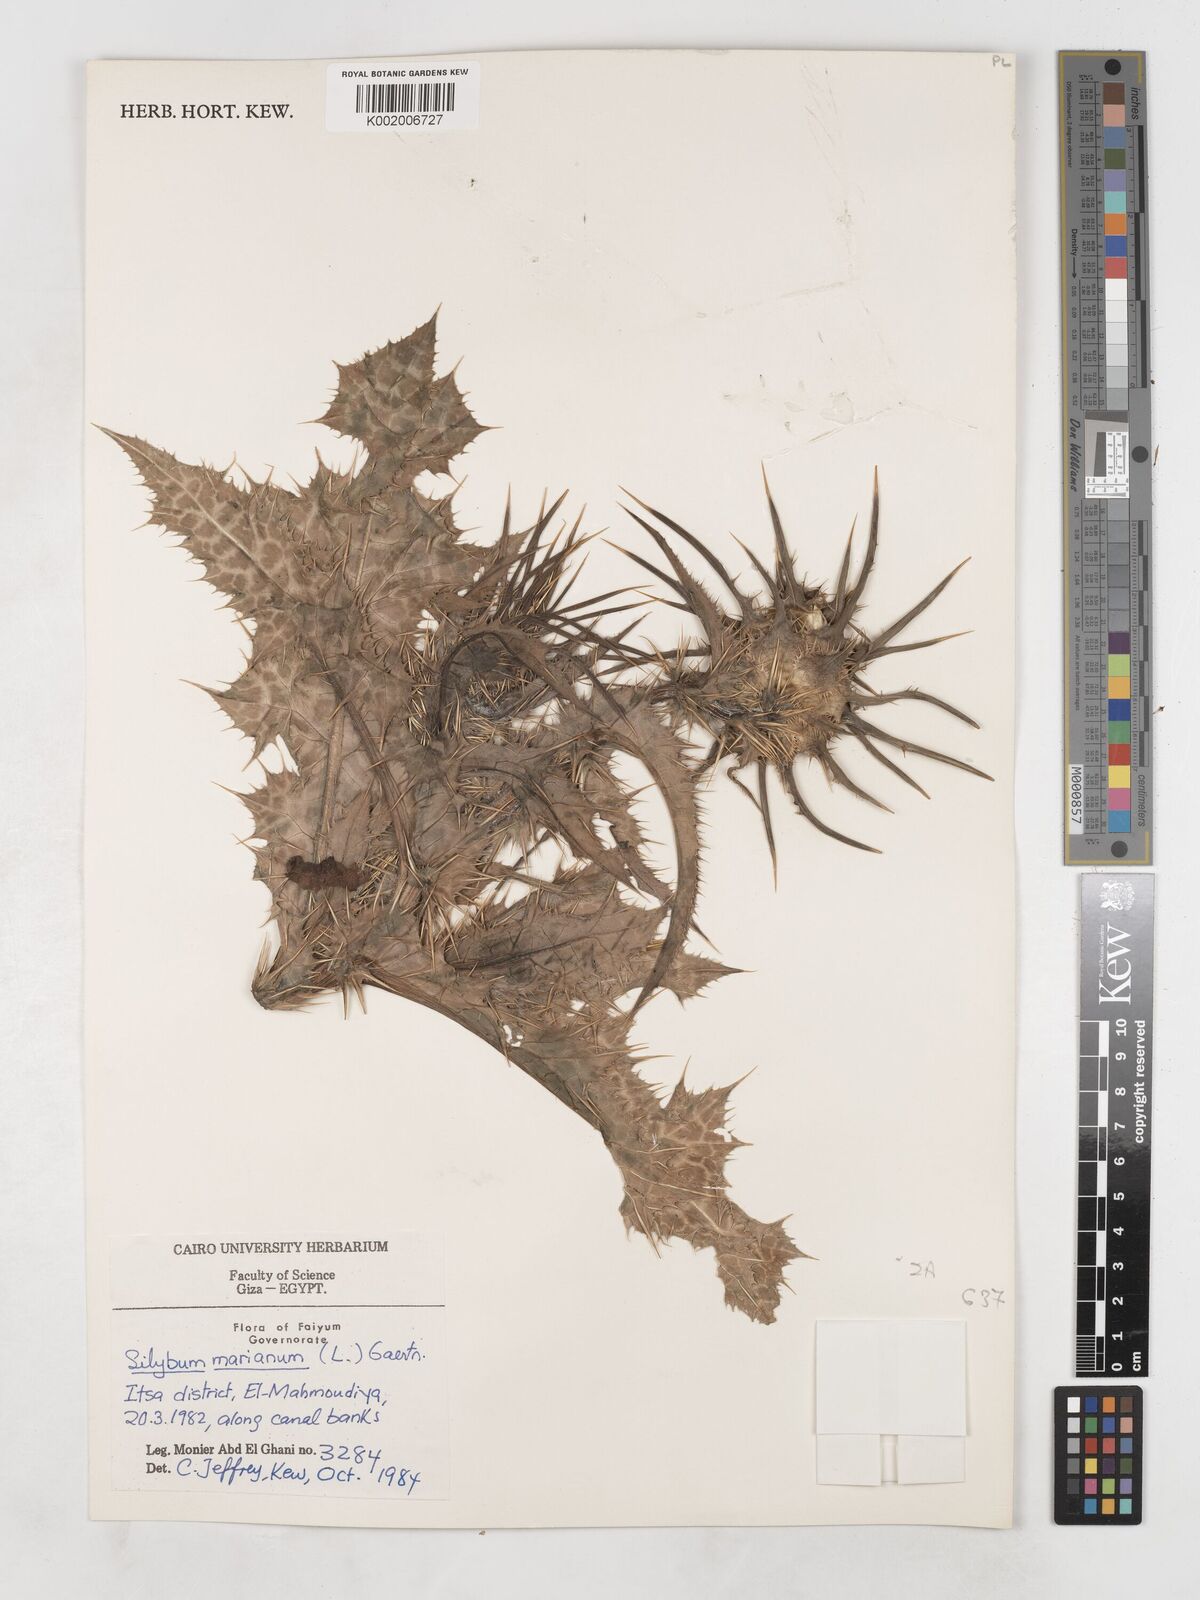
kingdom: Plantae
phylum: Tracheophyta
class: Magnoliopsida
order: Asterales
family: Asteraceae
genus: Silybum
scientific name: Silybum marianum
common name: Milk thistle
